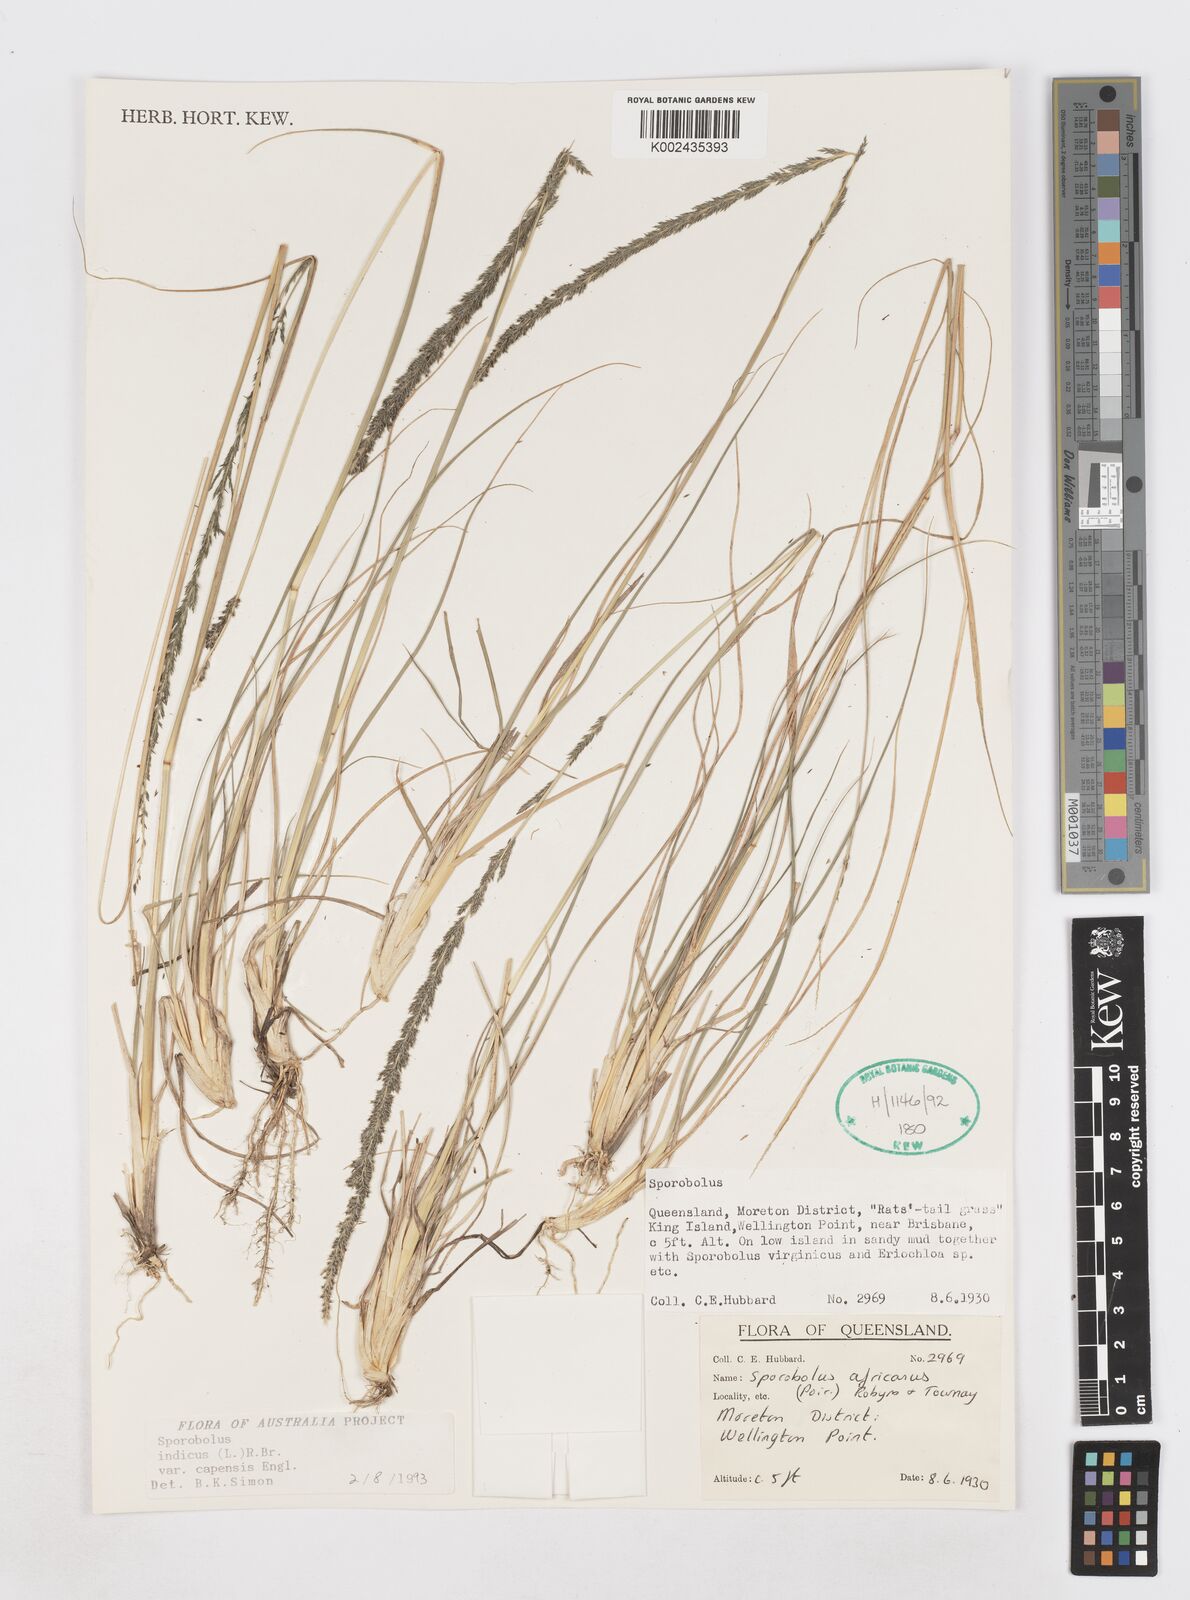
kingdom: Plantae
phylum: Tracheophyta
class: Liliopsida
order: Poales
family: Poaceae
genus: Sporobolus
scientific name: Sporobolus africanus
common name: African dropseed
